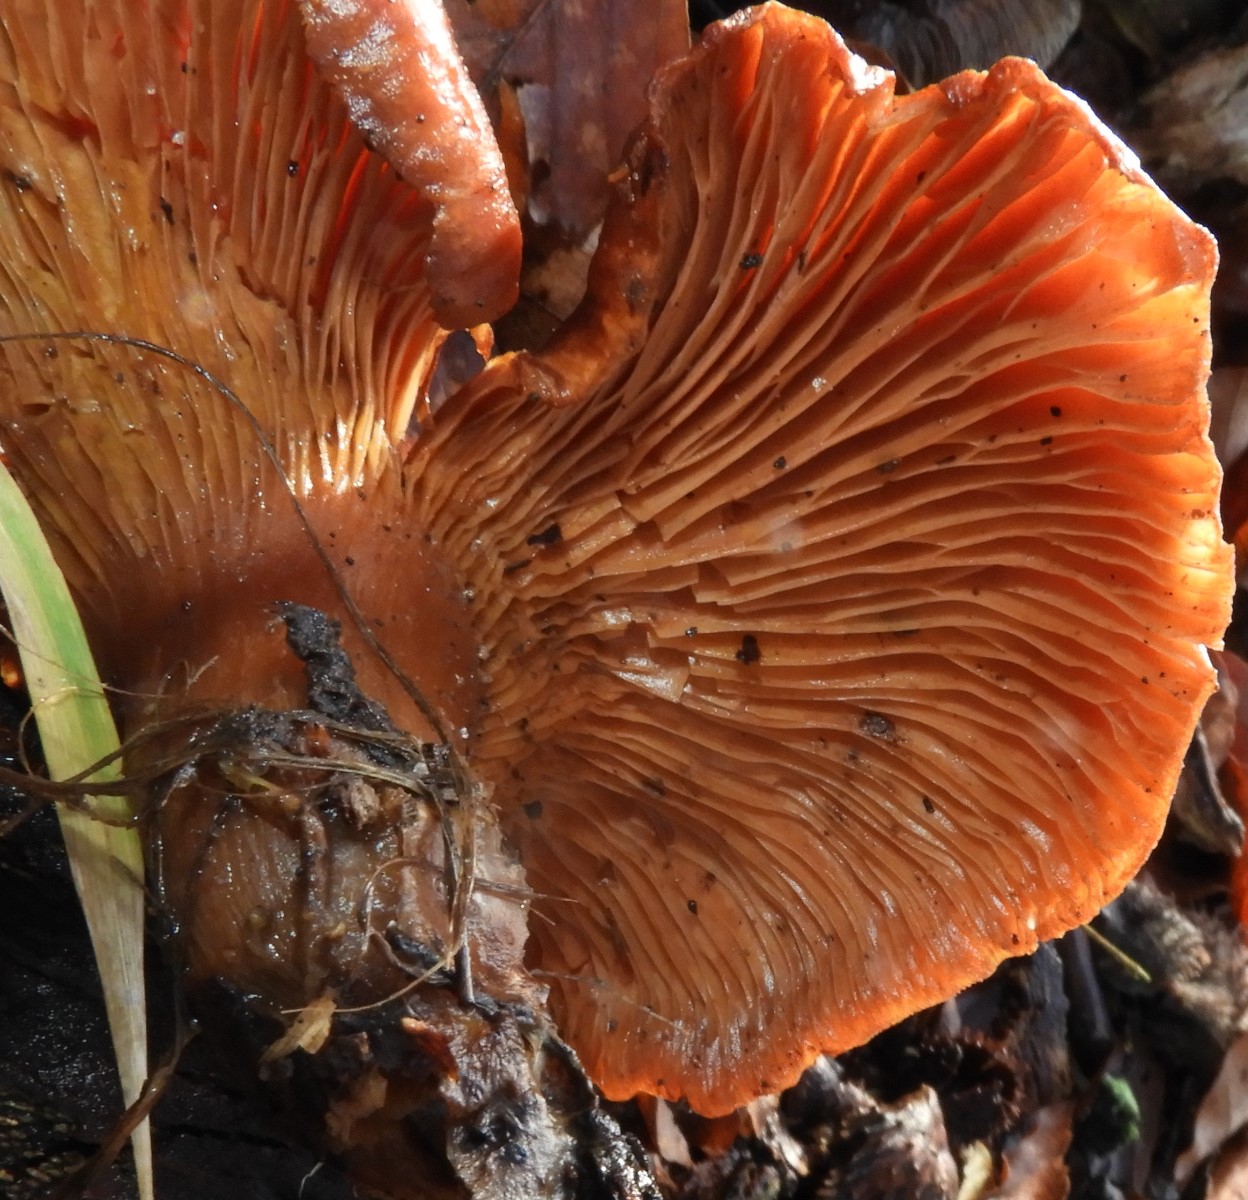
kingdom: Fungi
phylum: Basidiomycota
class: Agaricomycetes
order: Agaricales
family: Tricholomataceae
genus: Paralepista
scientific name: Paralepista flaccida
